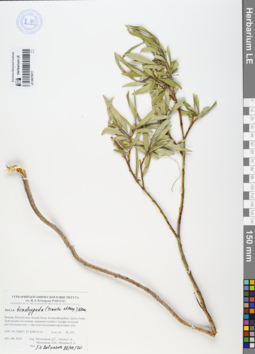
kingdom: Plantae
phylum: Tracheophyta
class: Magnoliopsida
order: Malpighiales
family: Salicaceae
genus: Salix
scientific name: Salix brachypoda
